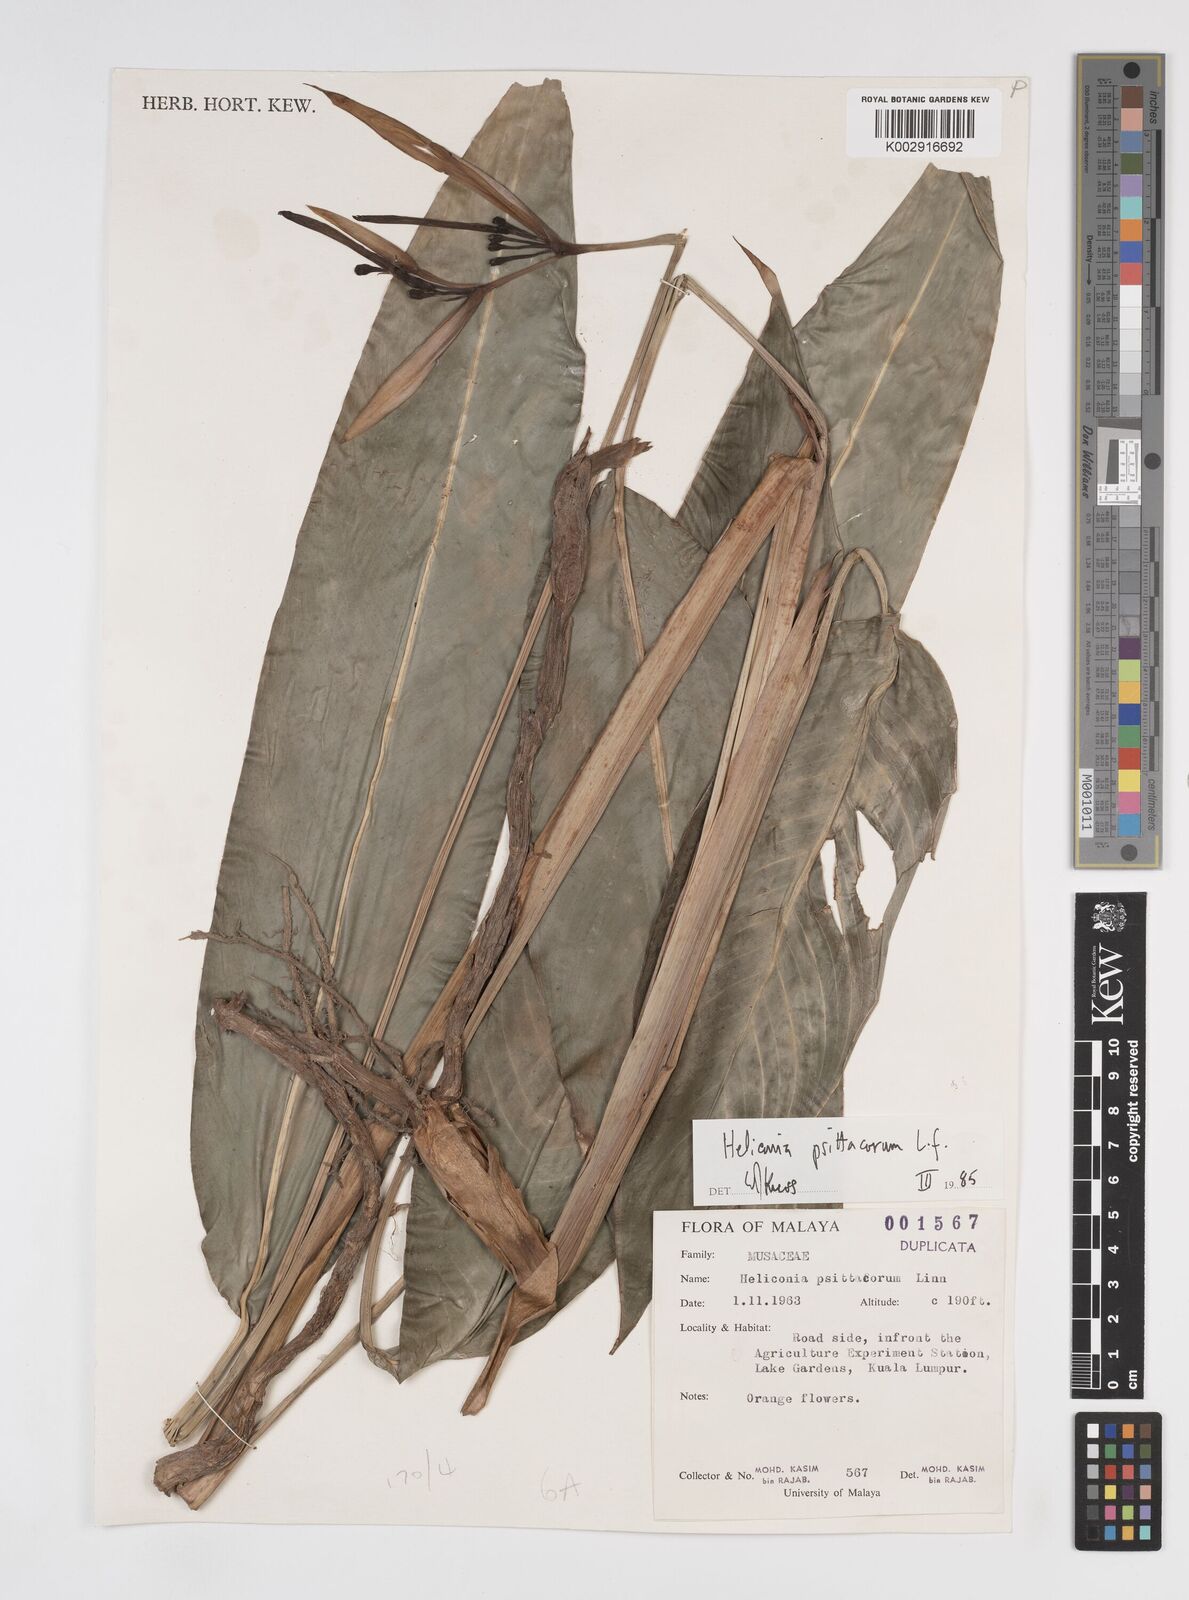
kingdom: Plantae
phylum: Tracheophyta
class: Liliopsida
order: Zingiberales
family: Heliconiaceae
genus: Heliconia
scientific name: Heliconia psittacorum
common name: Parrot's-flower
